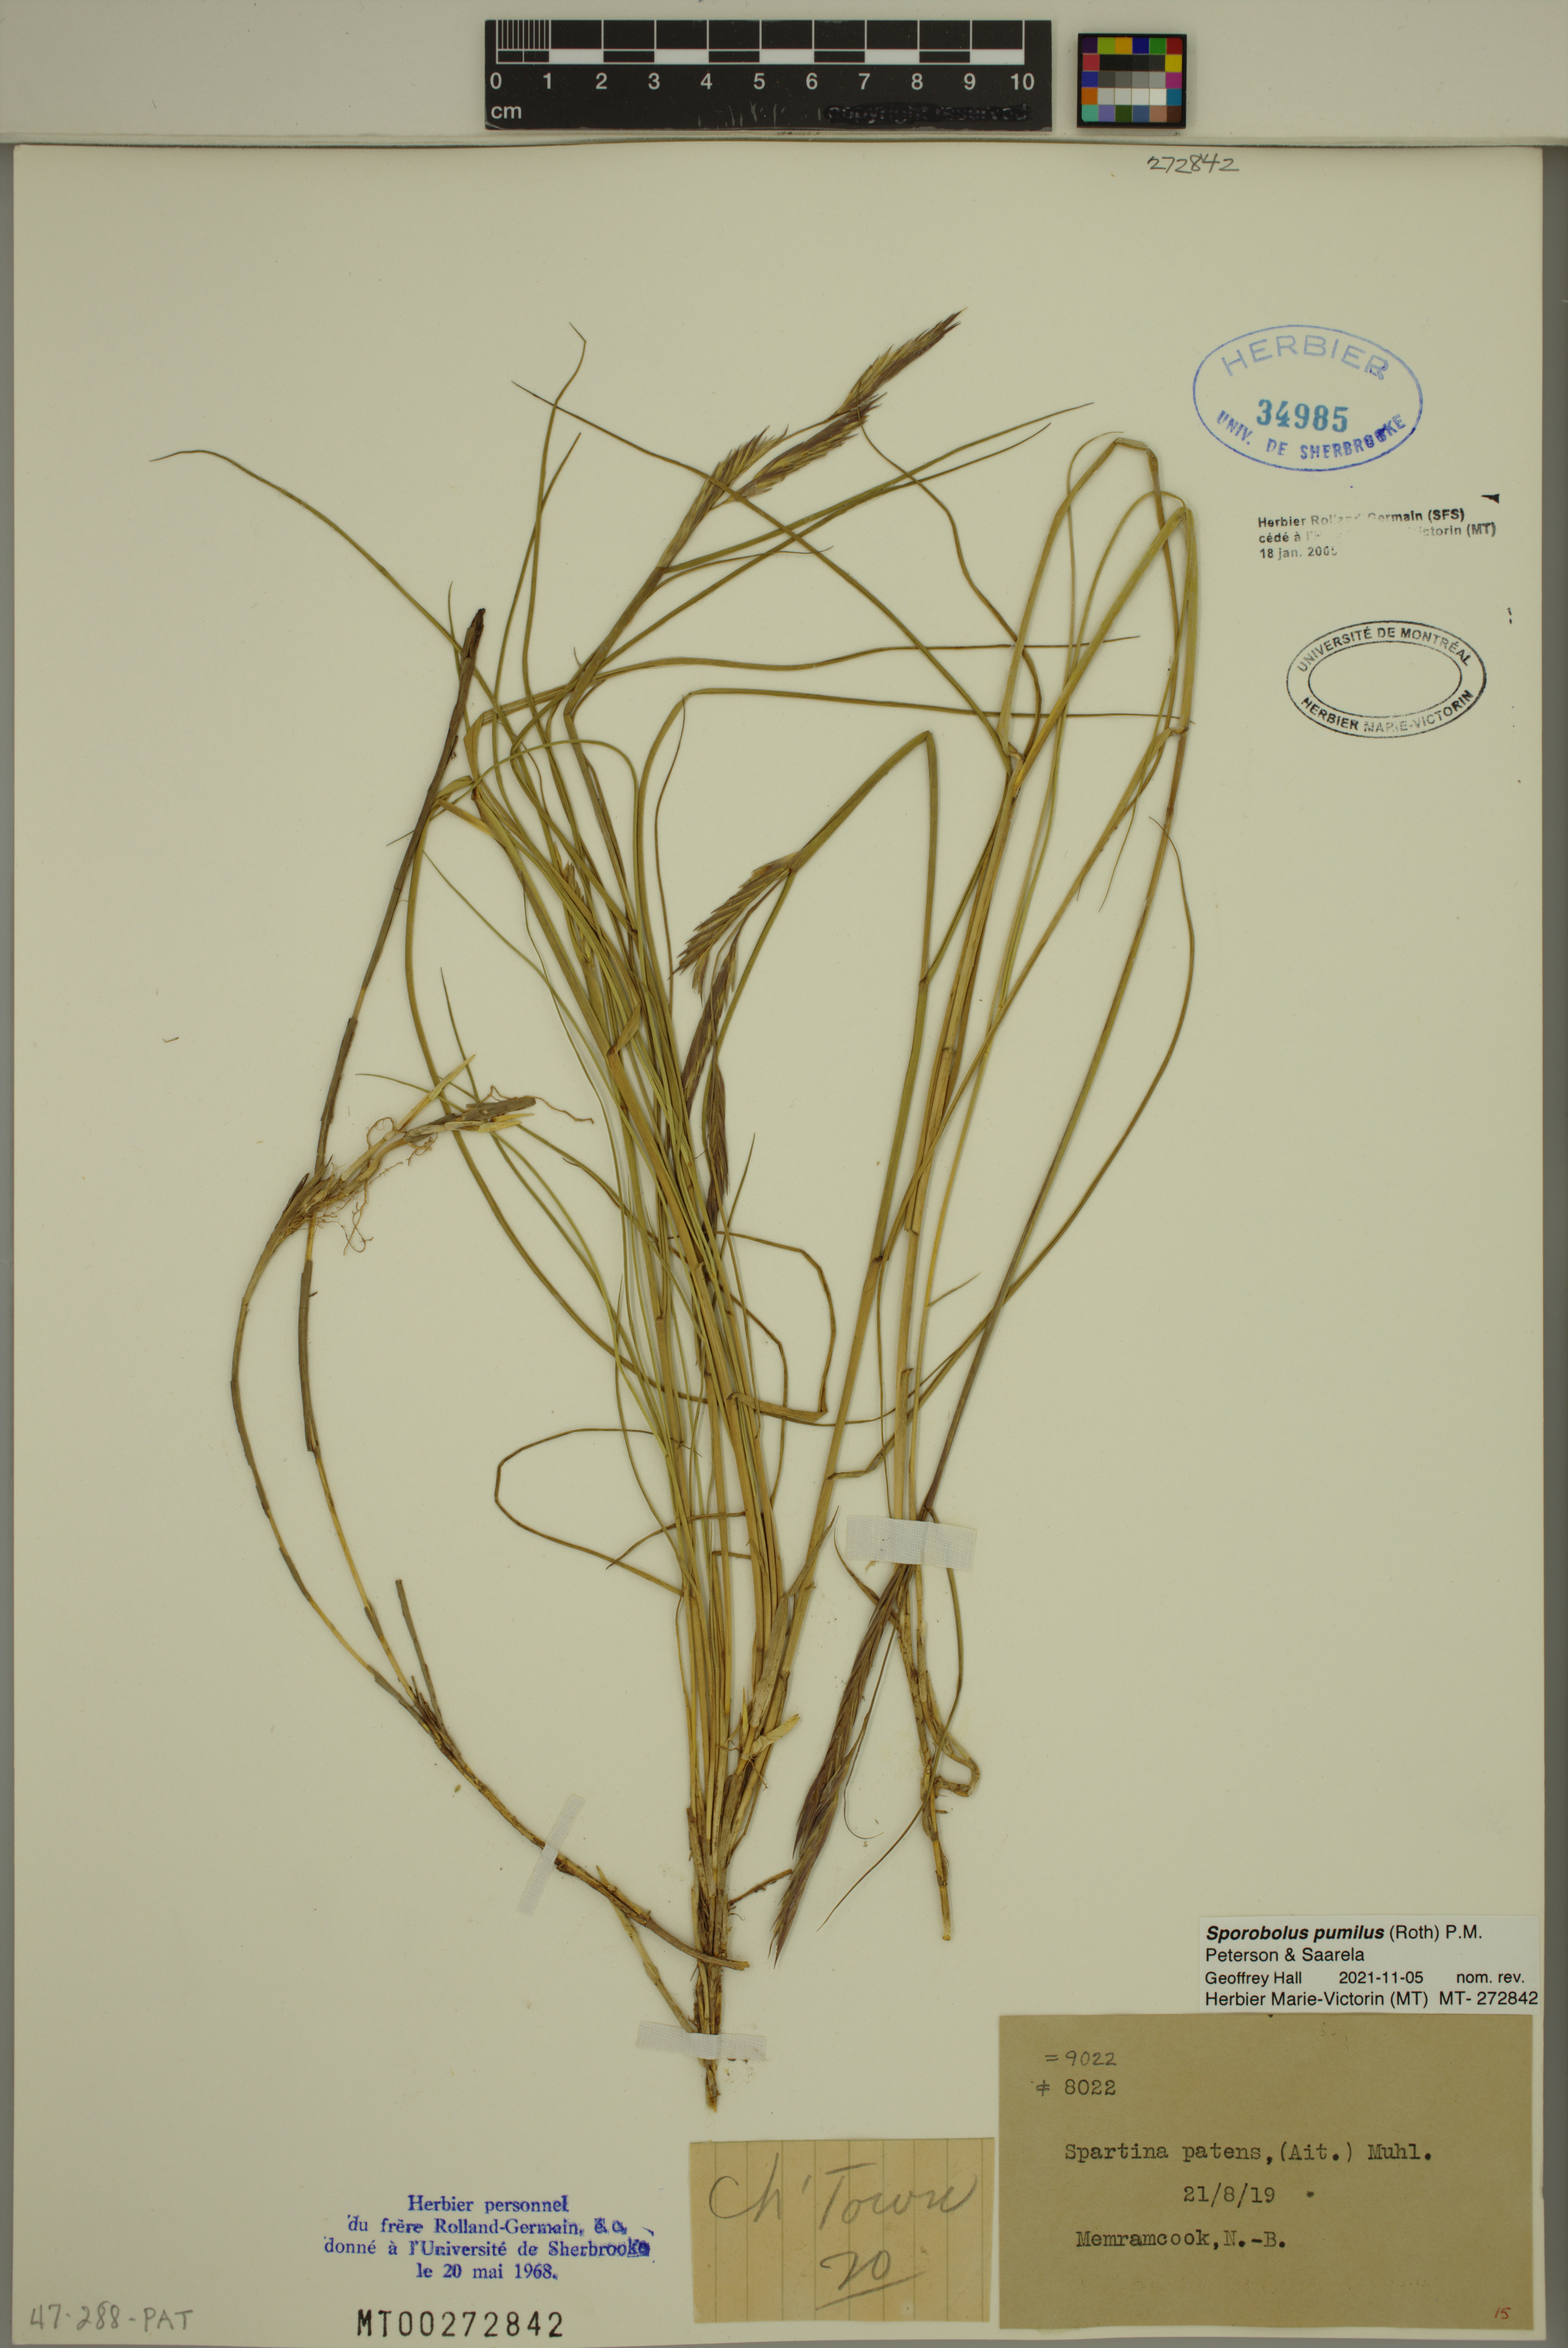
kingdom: Plantae
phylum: Tracheophyta
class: Liliopsida
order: Poales
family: Poaceae
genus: Sporobolus
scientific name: Sporobolus pumilus
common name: Highwater grass
